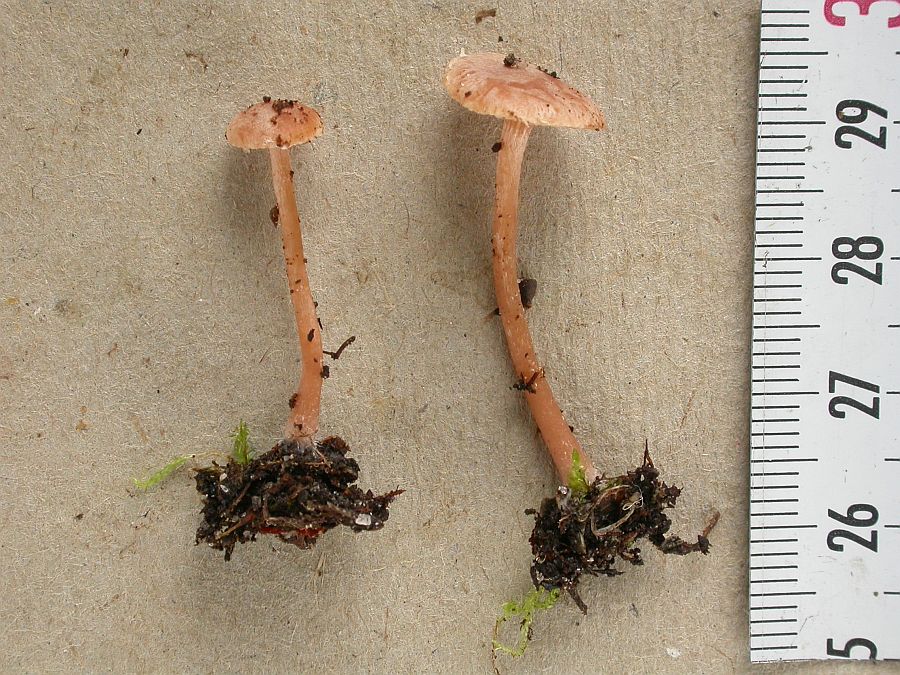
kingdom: Fungi
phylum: Basidiomycota
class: Agaricomycetes
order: Agaricales
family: Tubariaceae
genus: Tubaria
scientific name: Tubaria conspersa
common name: bleg fnughat
